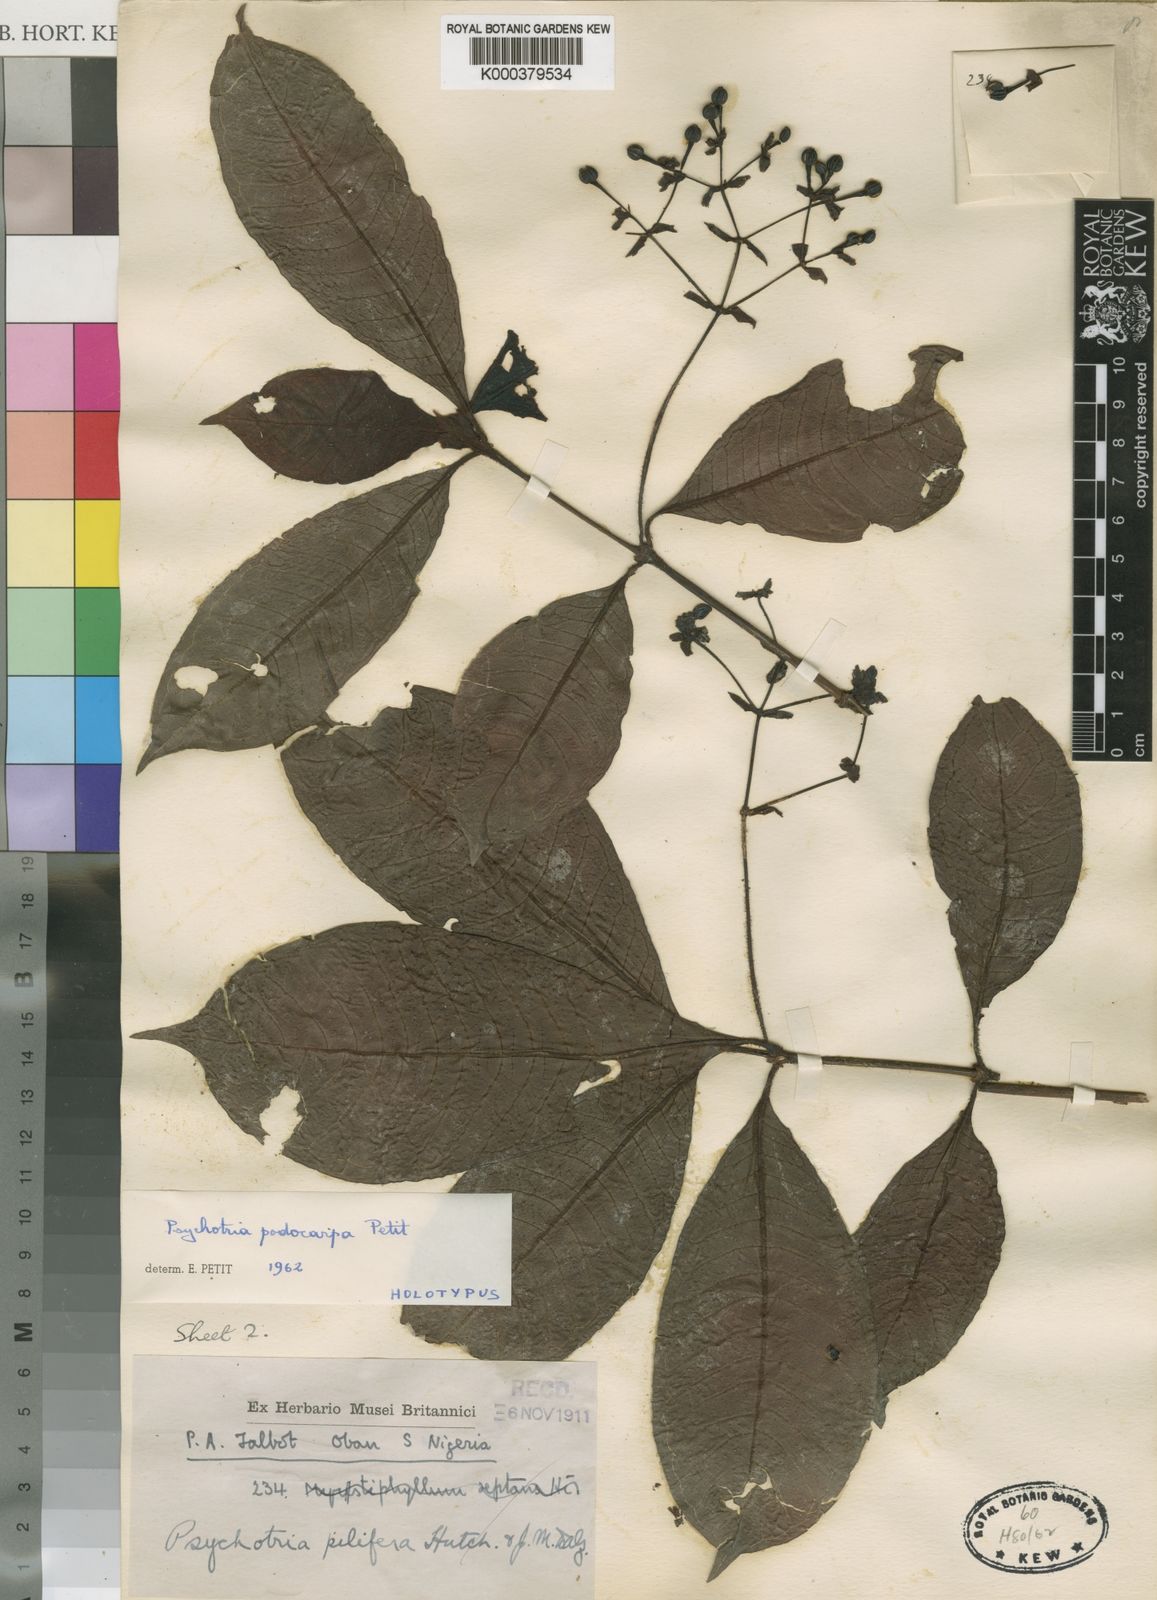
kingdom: Plantae
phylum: Tracheophyta
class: Magnoliopsida
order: Gentianales
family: Rubiaceae
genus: Psychotria
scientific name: Psychotria podocarpa
